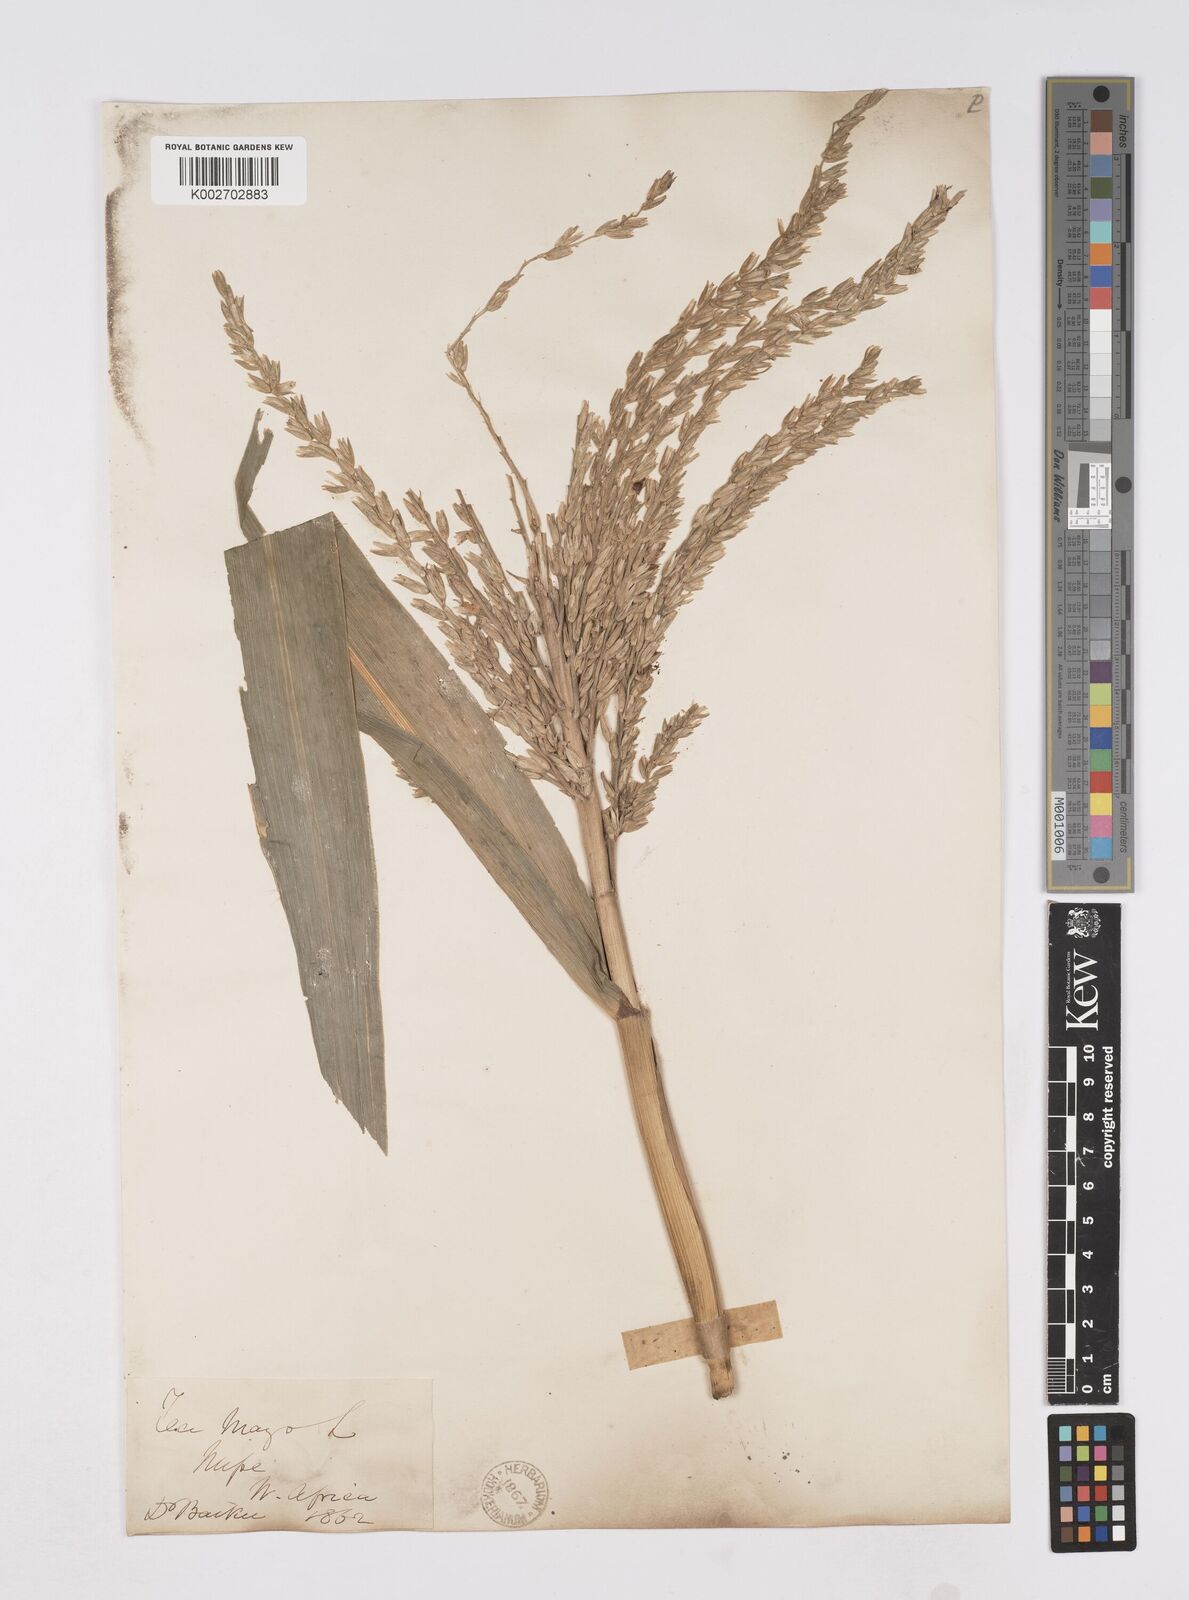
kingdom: Plantae
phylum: Tracheophyta
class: Liliopsida
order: Poales
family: Poaceae
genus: Zea
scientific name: Zea mays
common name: Maize
